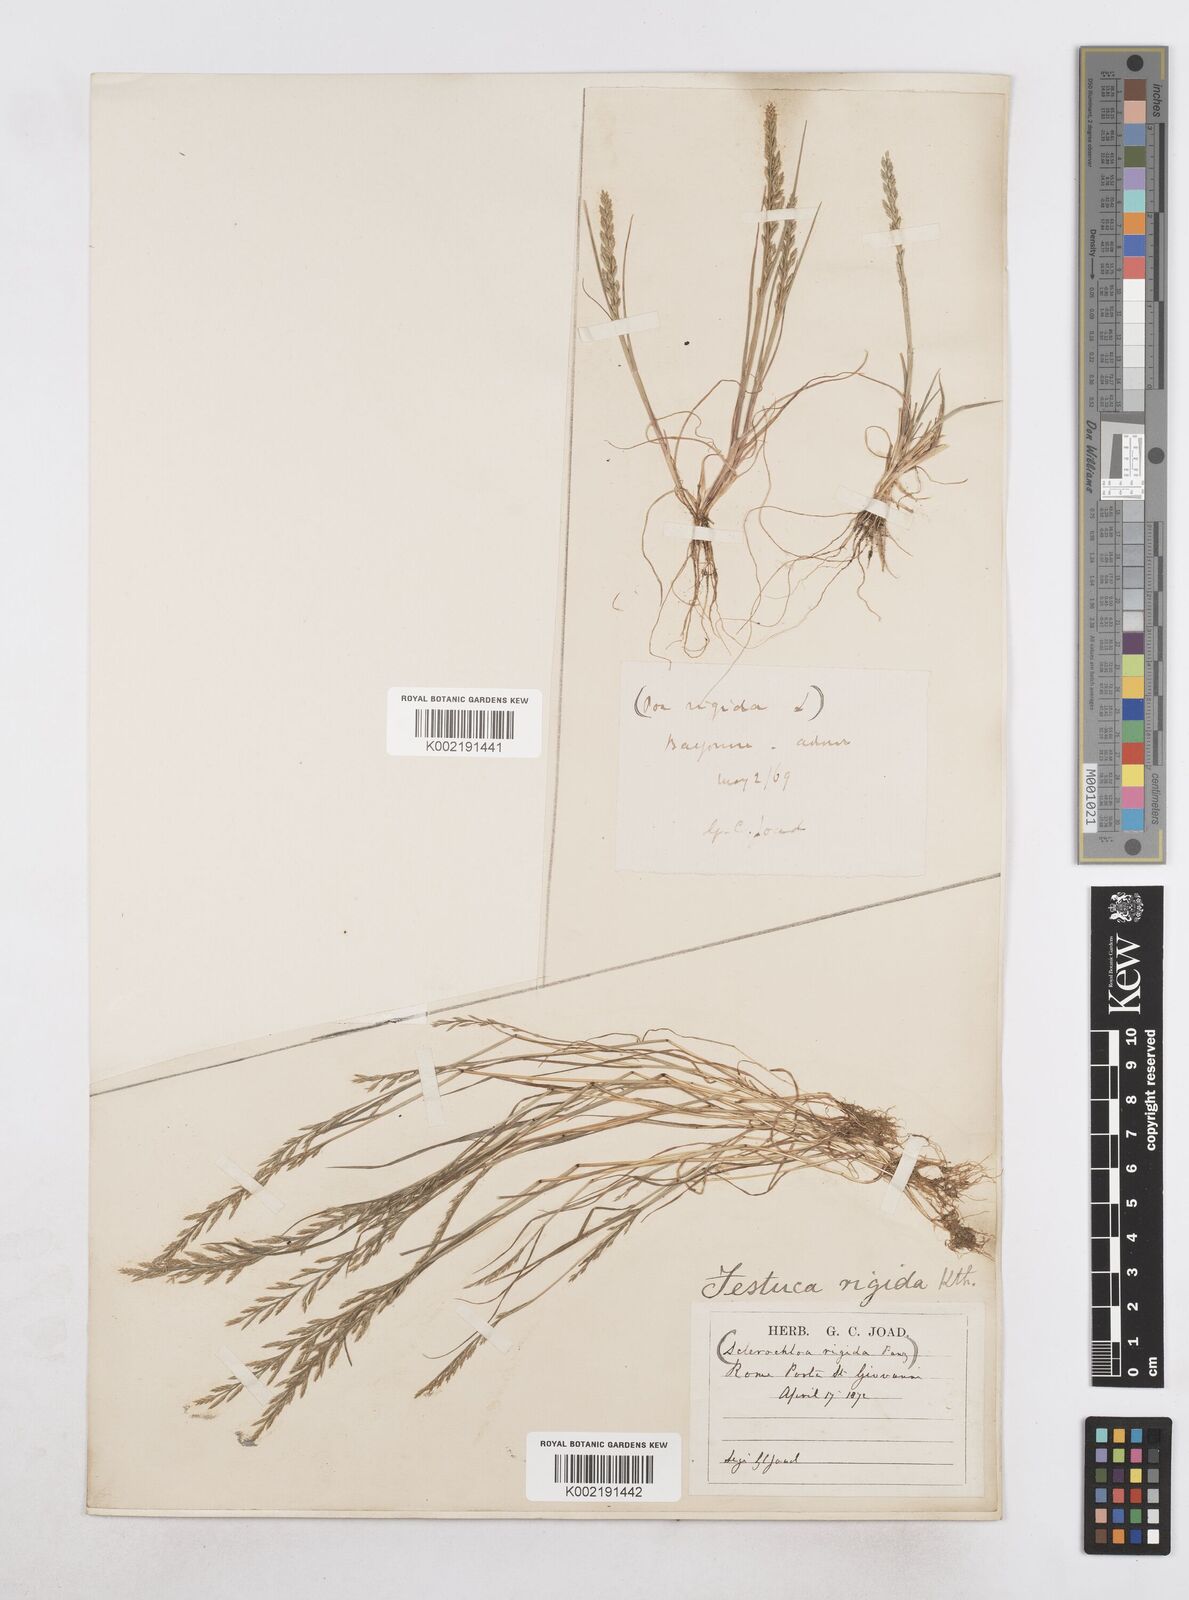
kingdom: Plantae
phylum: Tracheophyta
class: Liliopsida
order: Poales
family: Poaceae
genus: Catapodium
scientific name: Catapodium rigidum
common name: Fern-grass
